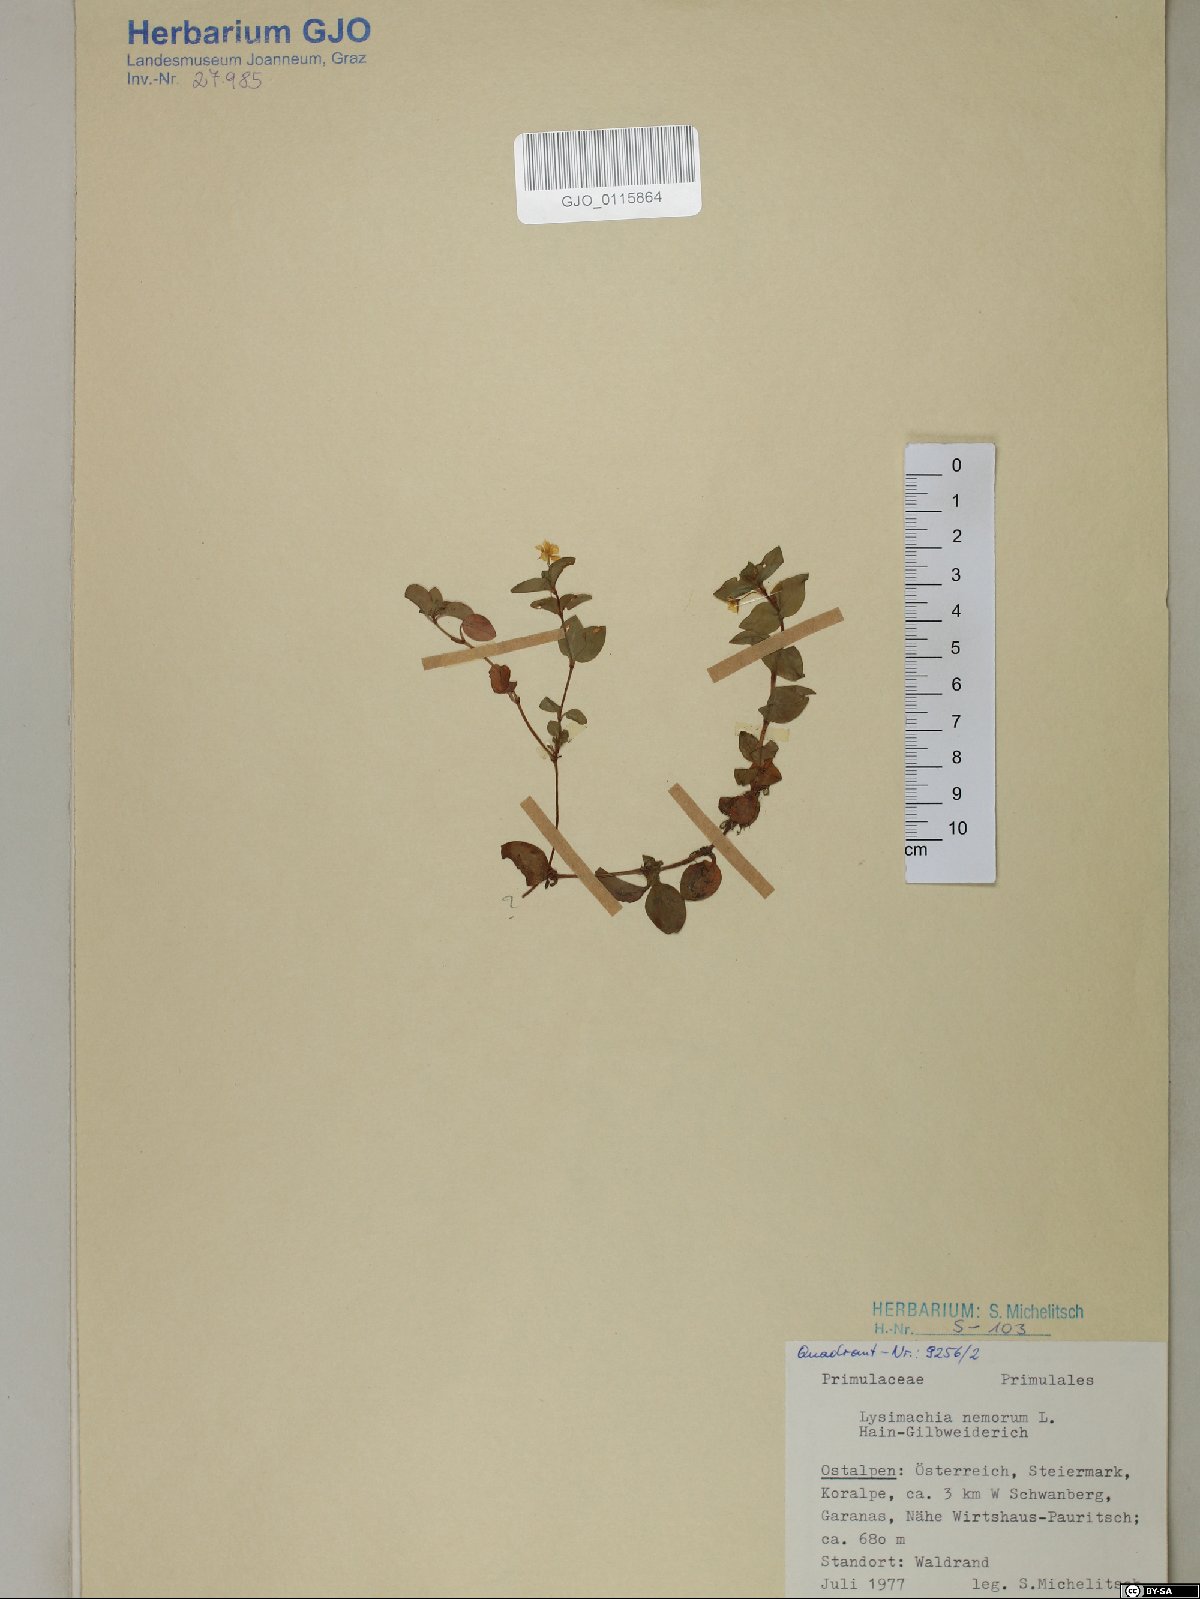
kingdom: Plantae
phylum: Tracheophyta
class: Magnoliopsida
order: Ericales
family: Primulaceae
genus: Lysimachia
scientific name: Lysimachia nemorum
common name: Yellow pimpernel
